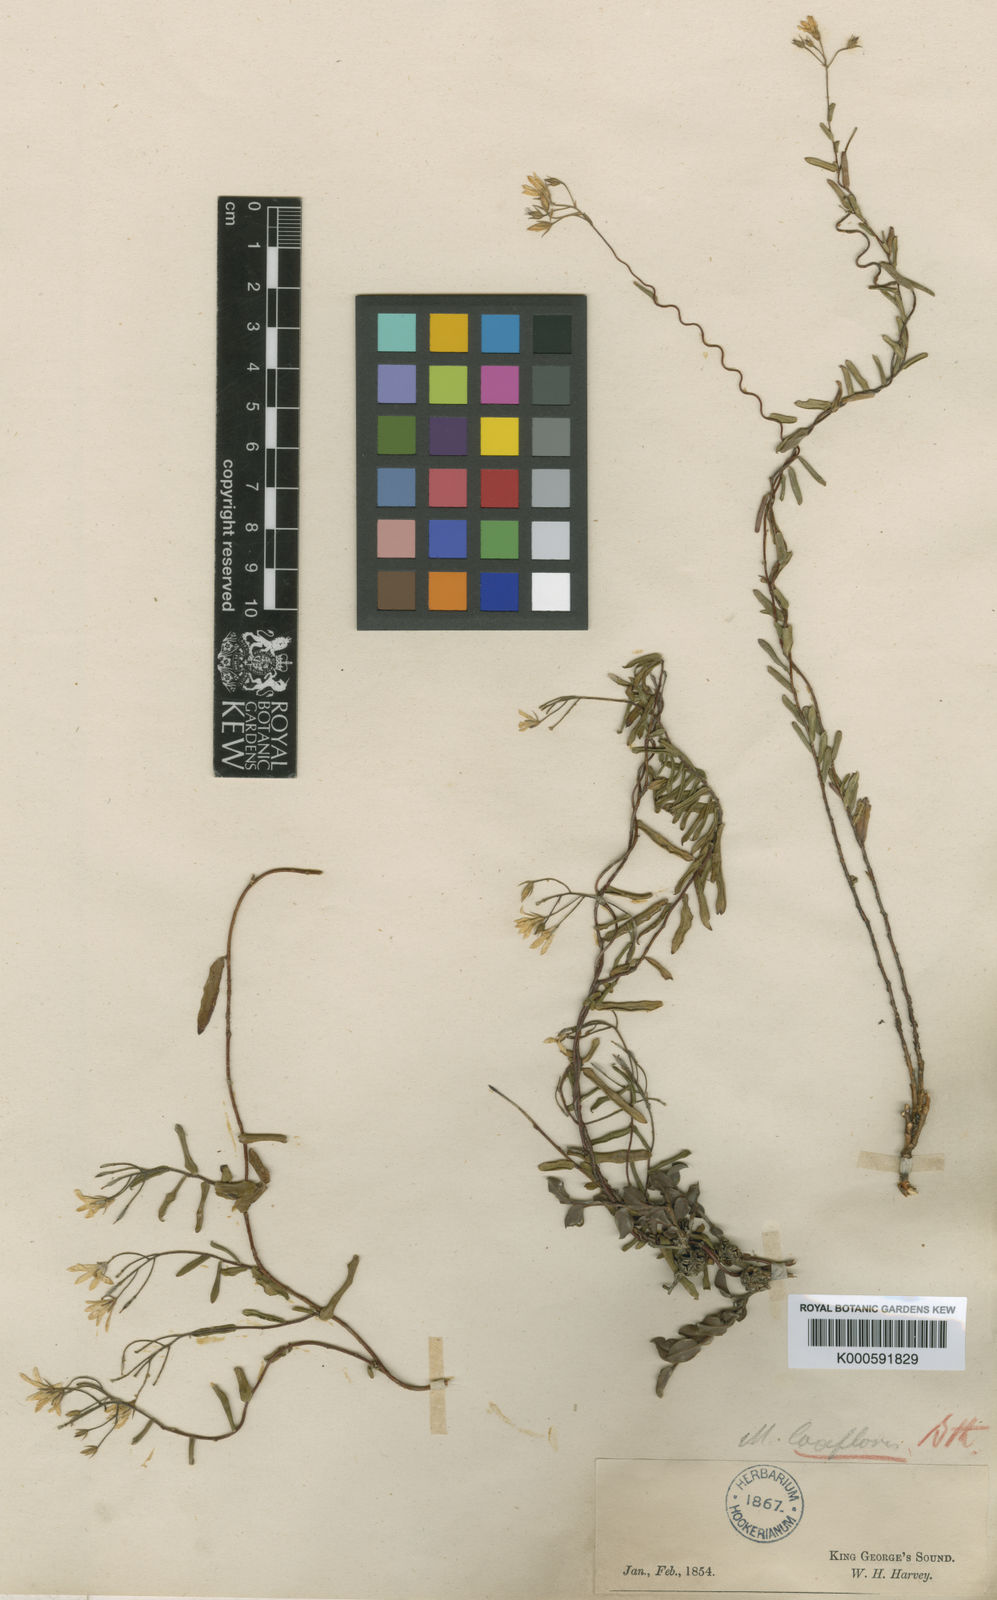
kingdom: Plantae
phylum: Tracheophyta
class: Magnoliopsida
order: Apiales
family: Pittosporaceae
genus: Billardiera
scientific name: Billardiera laxiflora
